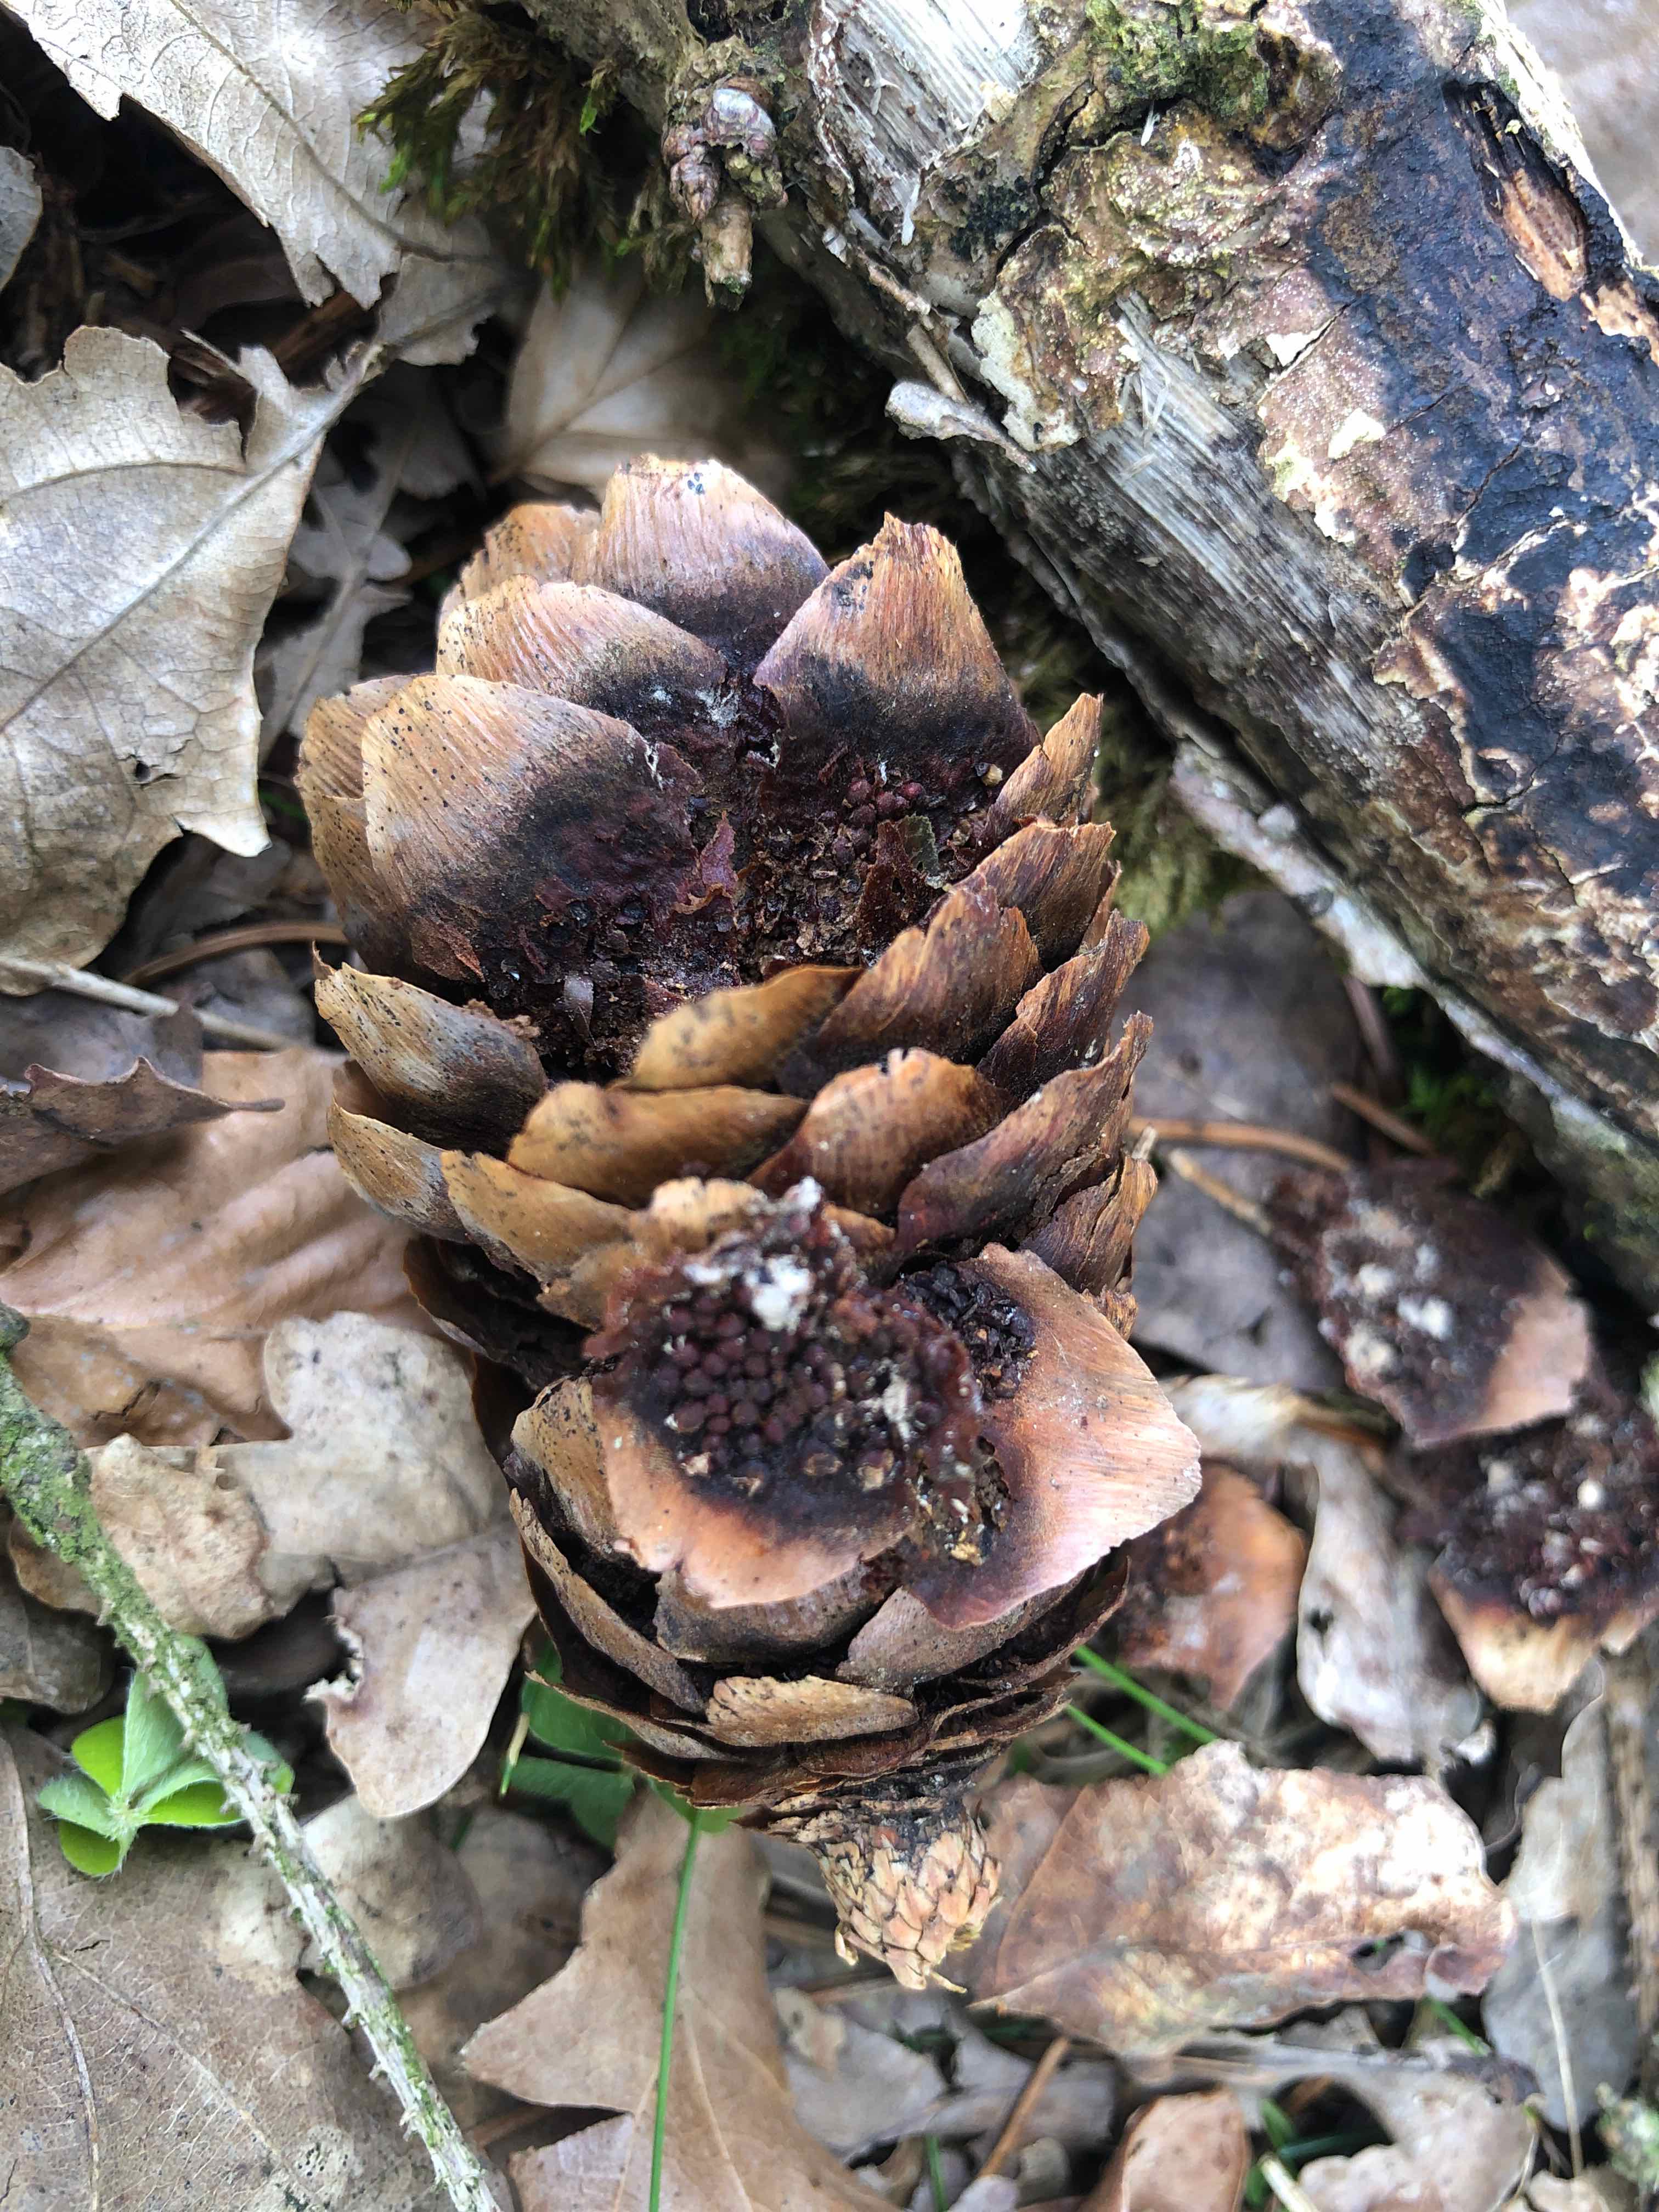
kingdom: Fungi
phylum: Basidiomycota
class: Pucciniomycetes
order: Pucciniales
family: Pucciniastraceae
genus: Thekopsora
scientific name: Thekopsora areolata
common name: grankogle-nålerust
